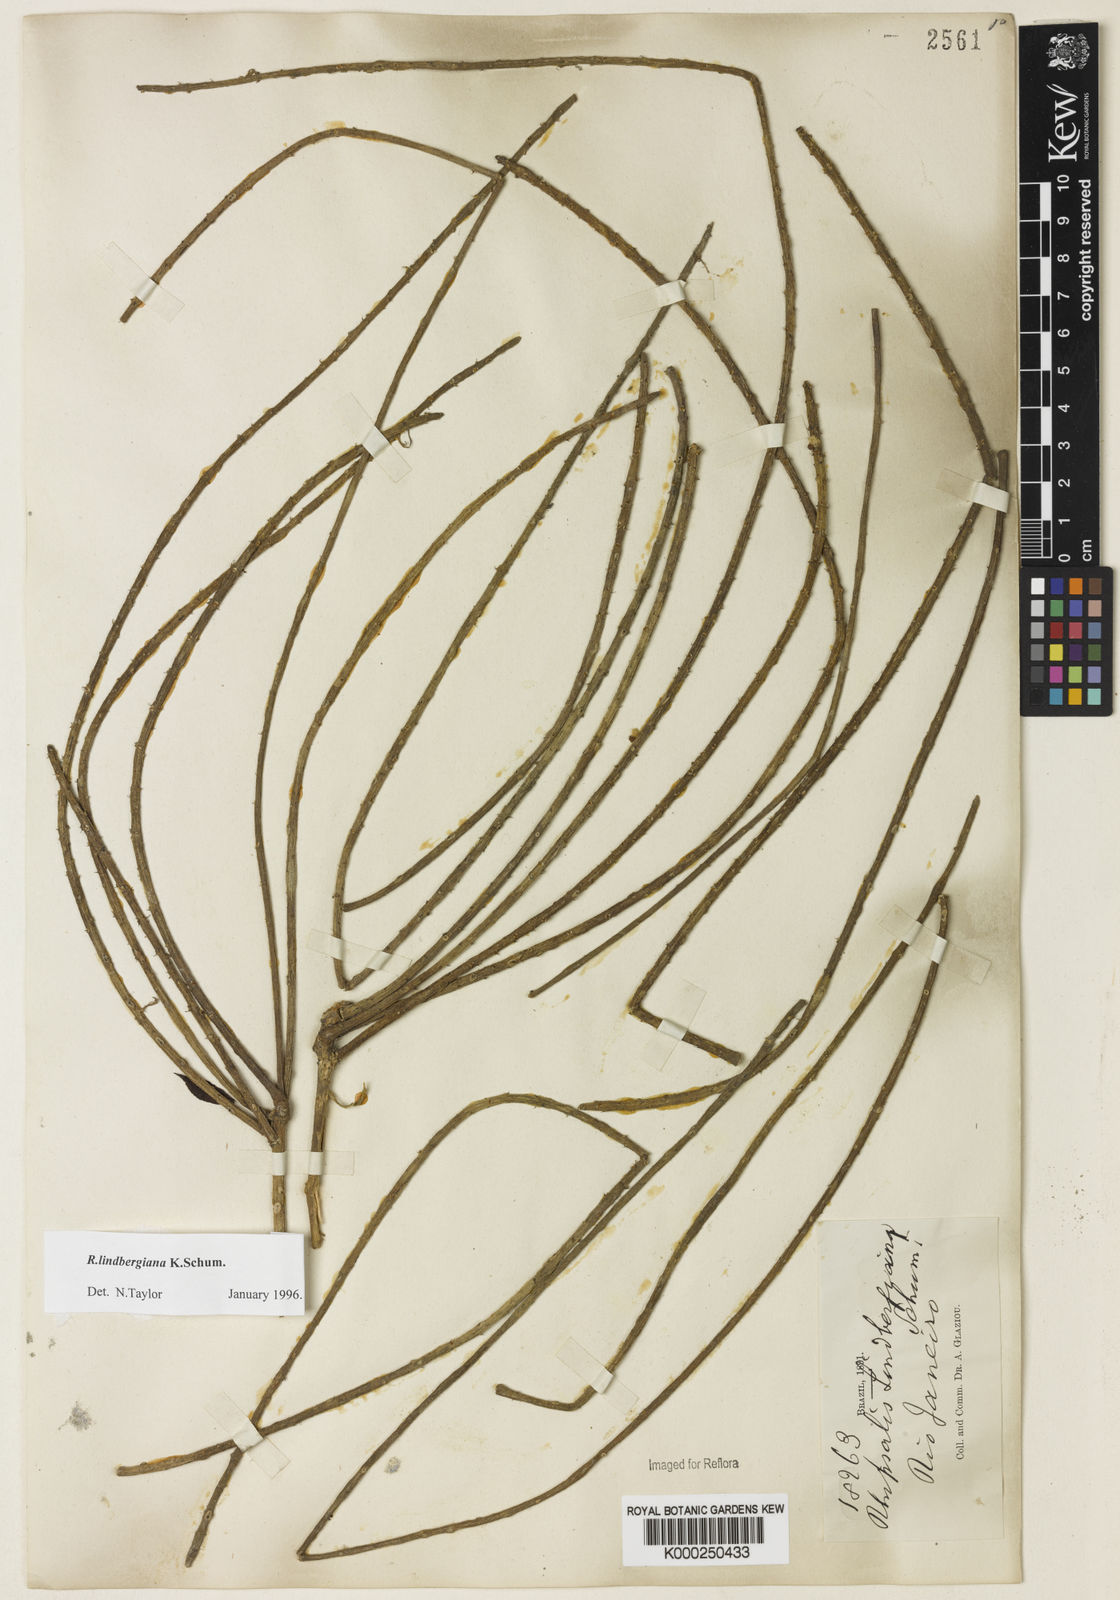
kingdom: Plantae
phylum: Tracheophyta
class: Magnoliopsida
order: Caryophyllales
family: Cactaceae
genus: Rhipsalis
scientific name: Rhipsalis lindbergiana
